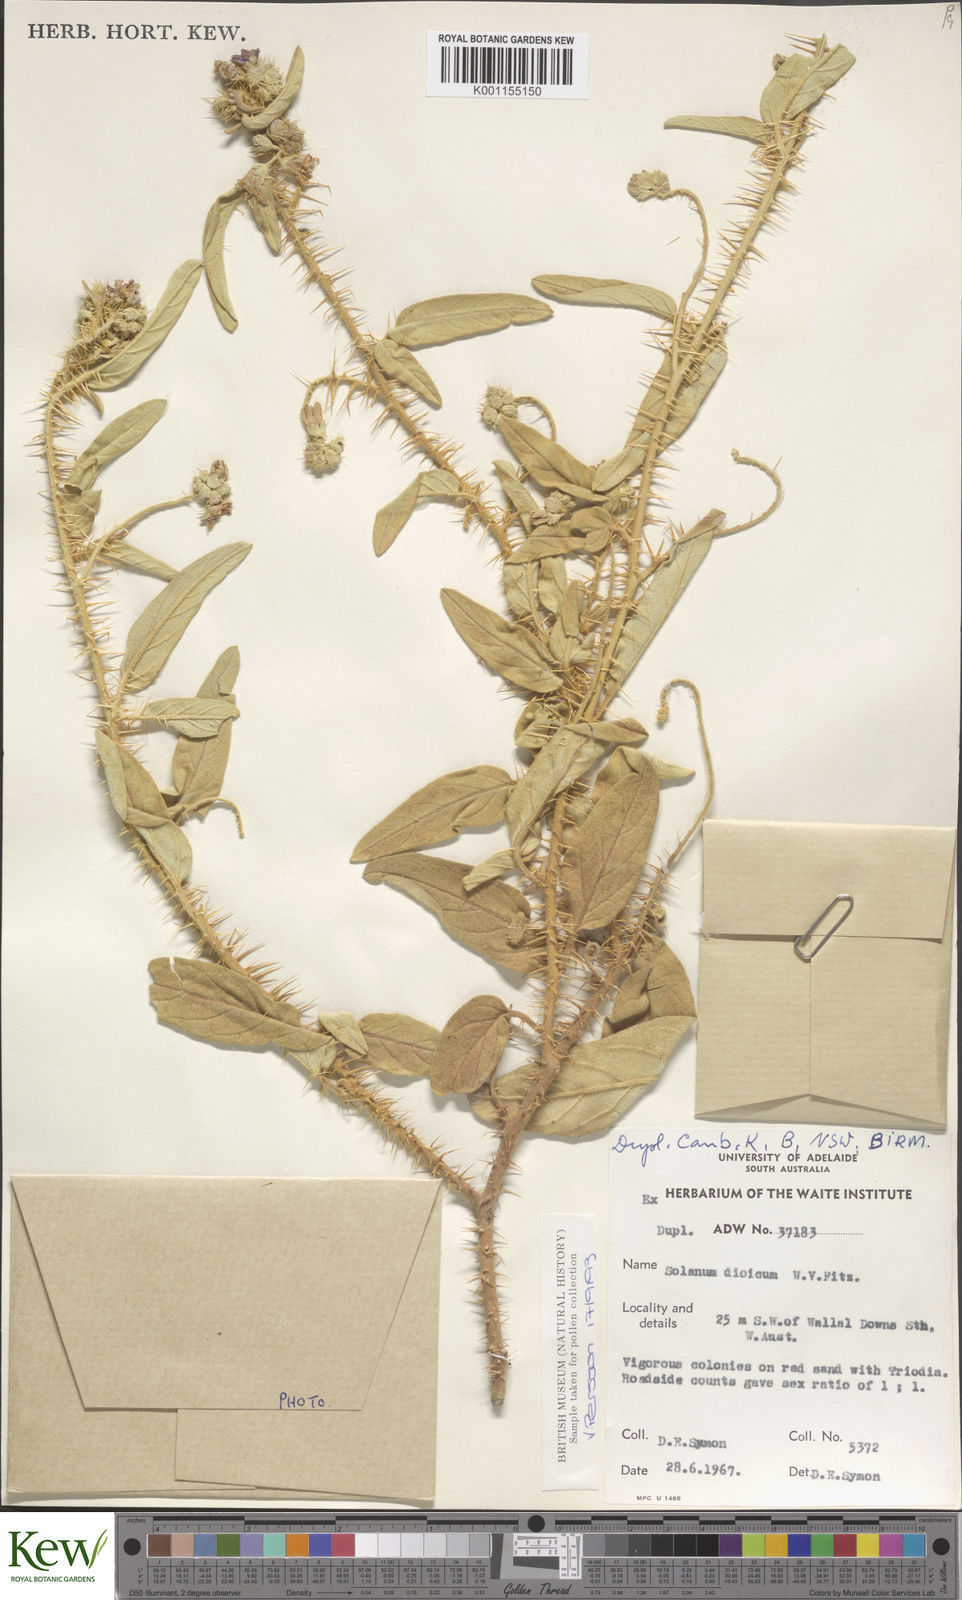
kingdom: Plantae
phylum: Tracheophyta
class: Magnoliopsida
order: Solanales
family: Solanaceae
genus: Solanum
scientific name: Solanum dioicum
